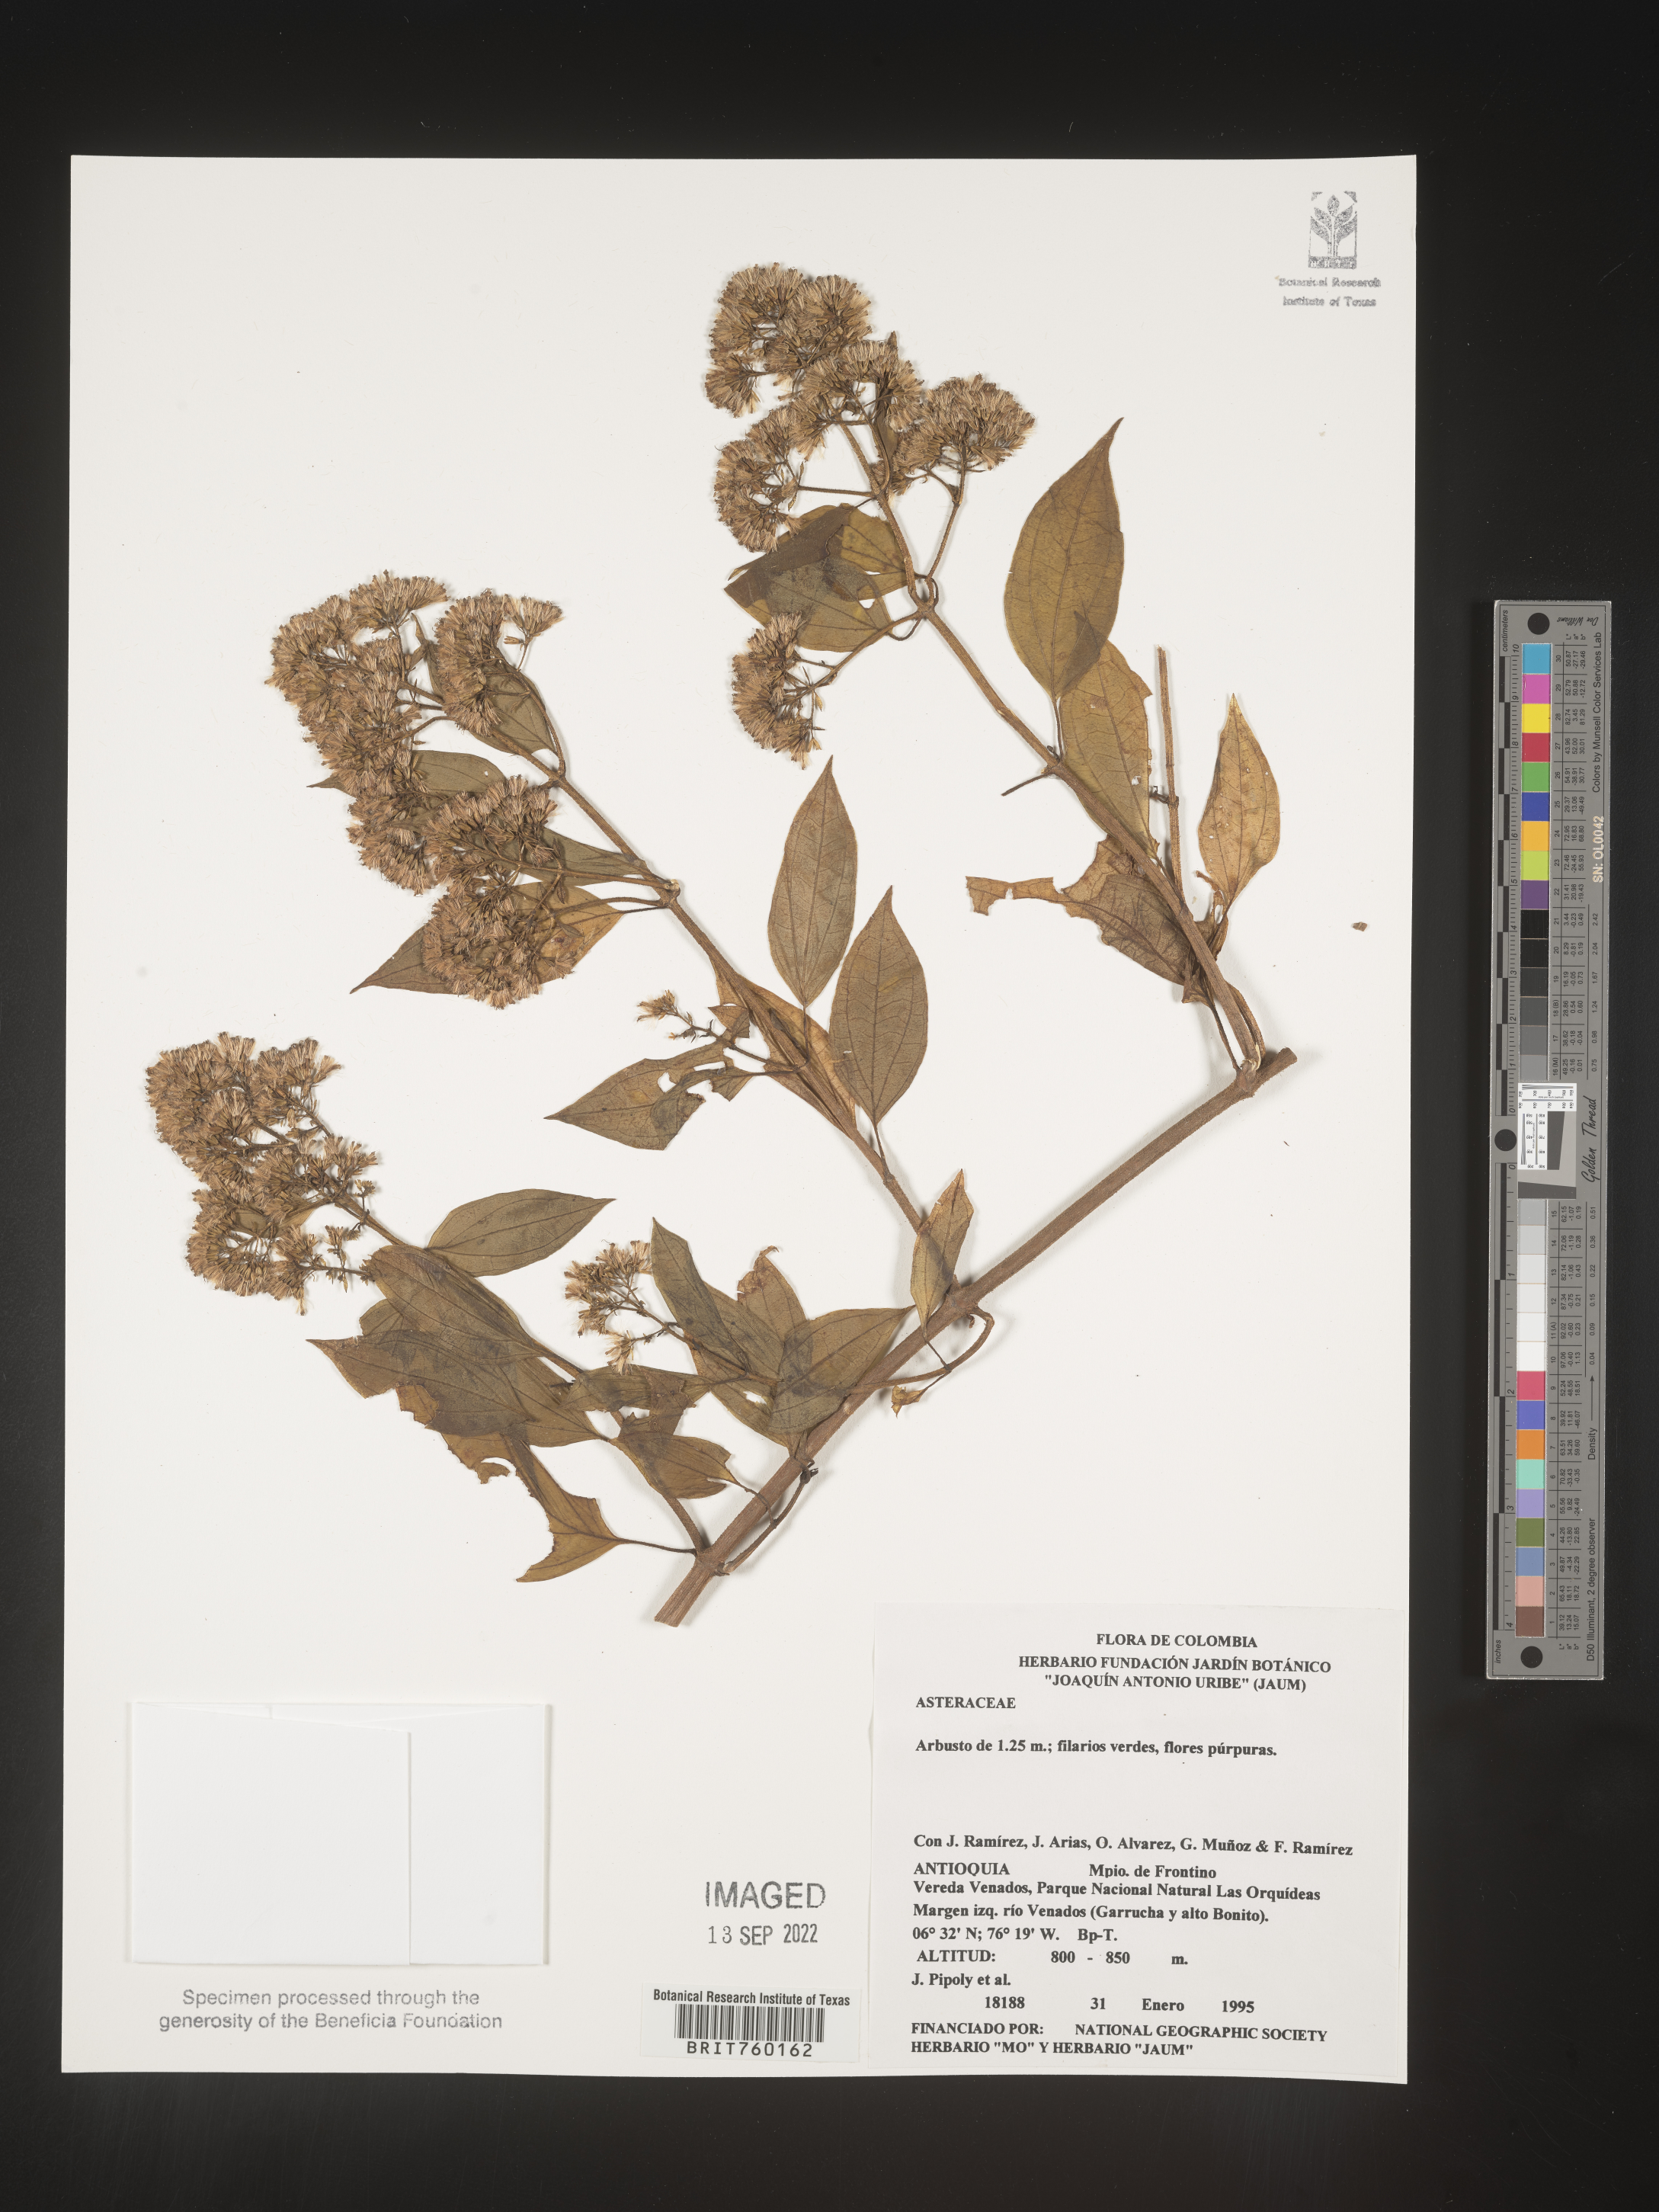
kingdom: Plantae
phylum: Tracheophyta
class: Magnoliopsida
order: Asterales
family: Asteraceae
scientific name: Asteraceae
